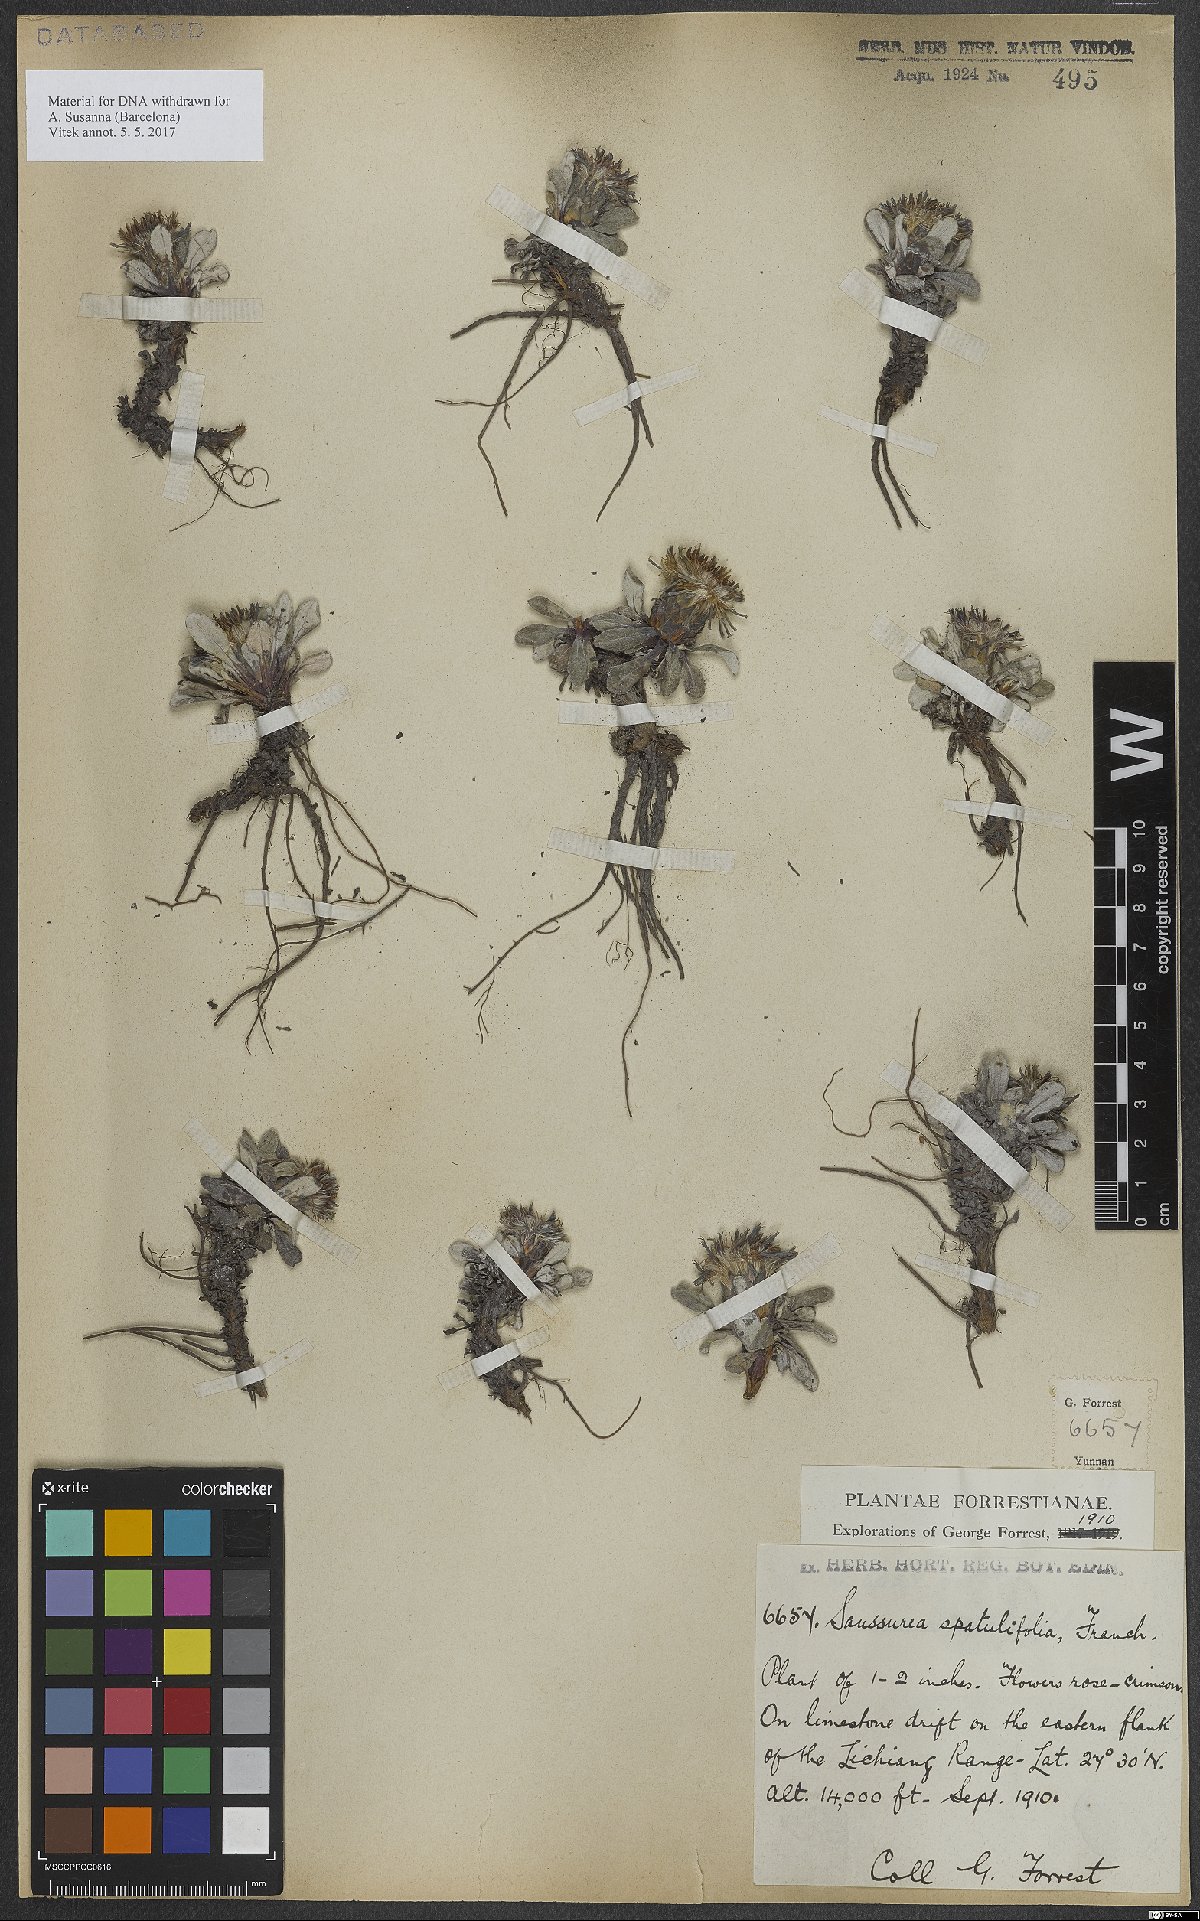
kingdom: Plantae
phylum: Tracheophyta
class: Magnoliopsida
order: Asterales
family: Asteraceae
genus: Saussurea
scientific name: Saussurea spatulifolia
